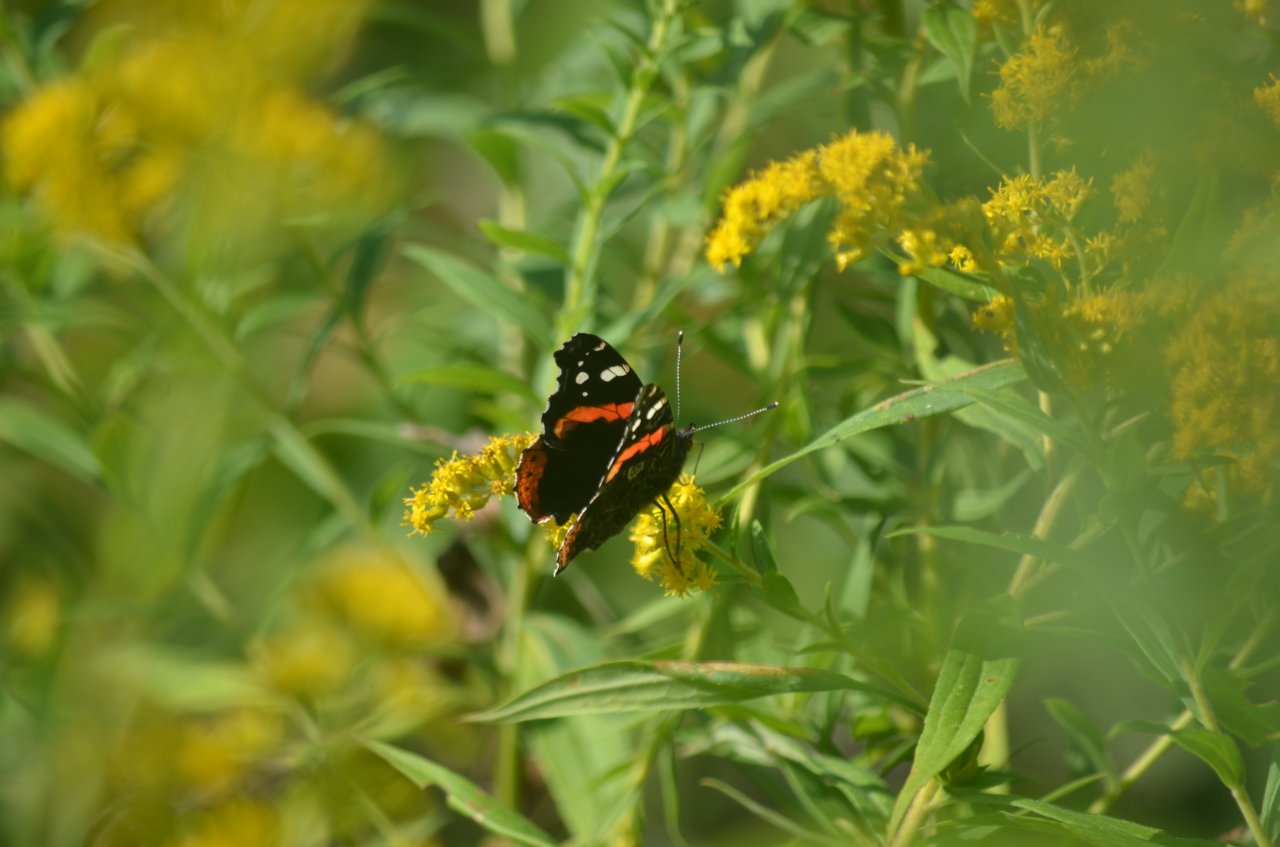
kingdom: Animalia
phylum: Arthropoda
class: Insecta
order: Lepidoptera
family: Nymphalidae
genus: Vanessa
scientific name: Vanessa atalanta
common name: Red Admiral
